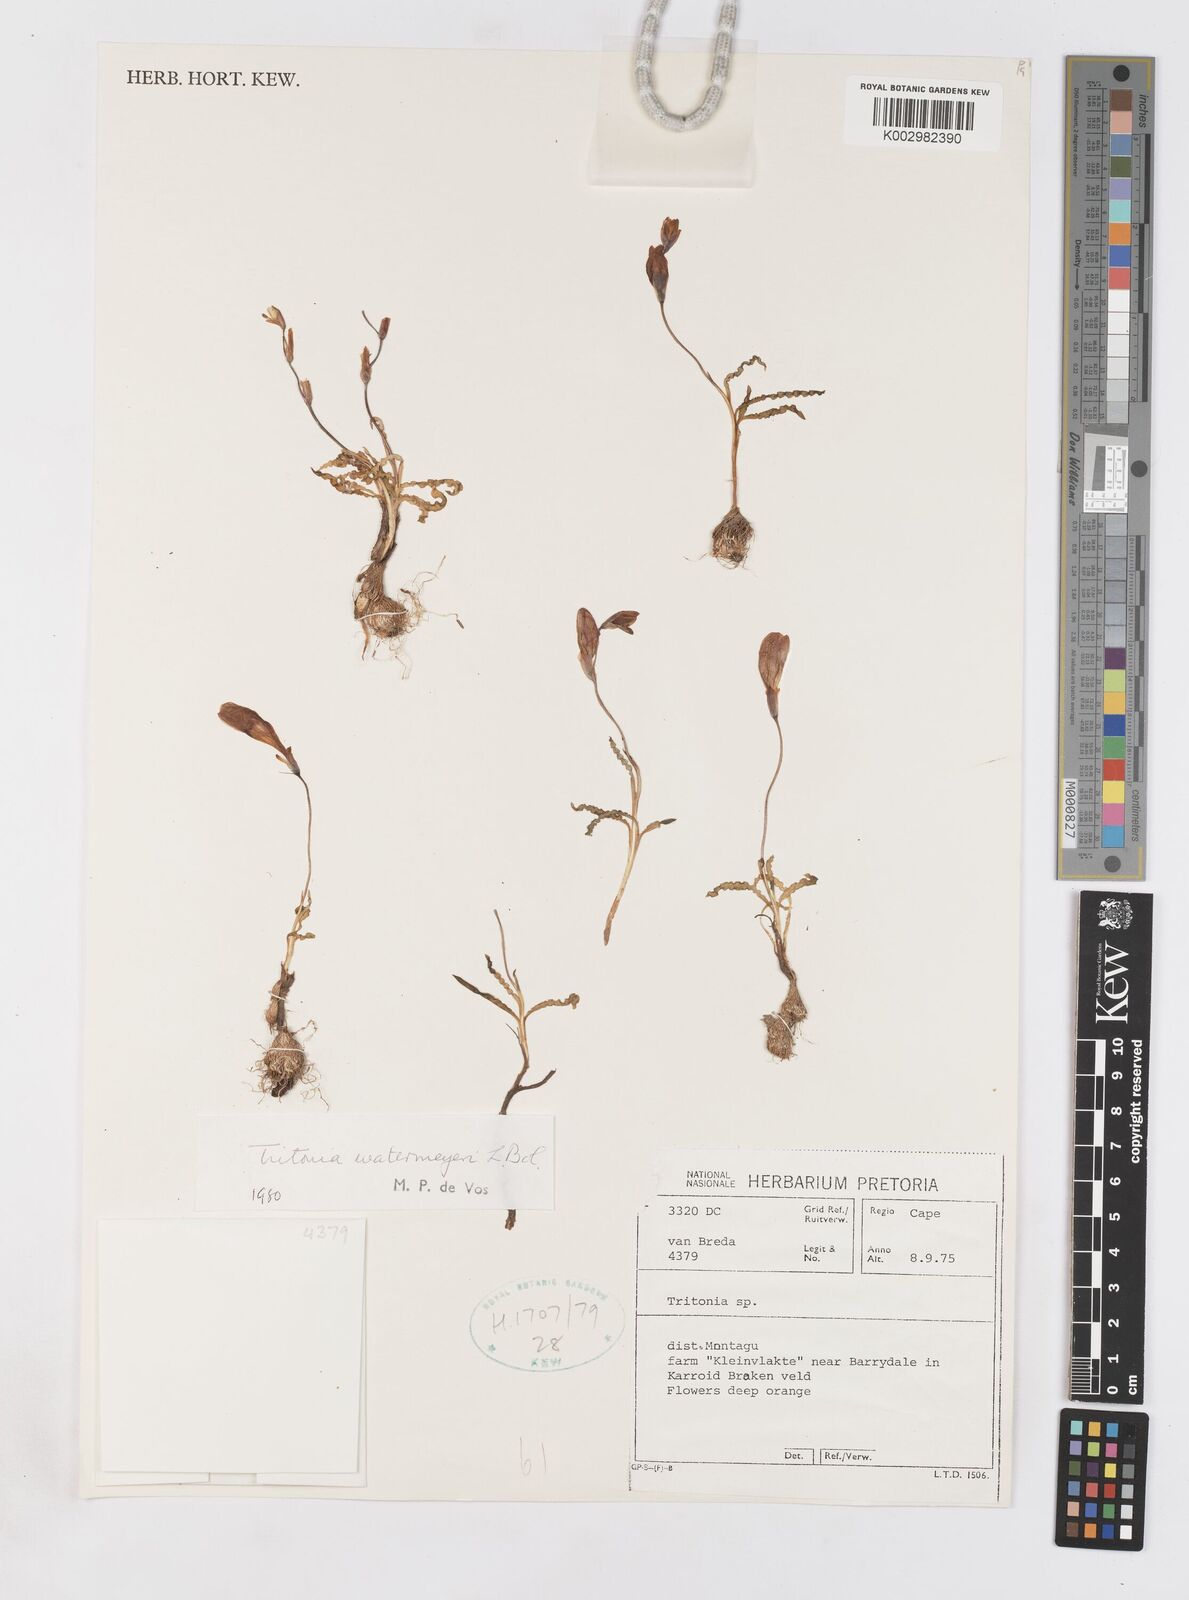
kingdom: Plantae
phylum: Tracheophyta
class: Liliopsida
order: Asparagales
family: Iridaceae
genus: Tritonia
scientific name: Tritonia watermeyeri
